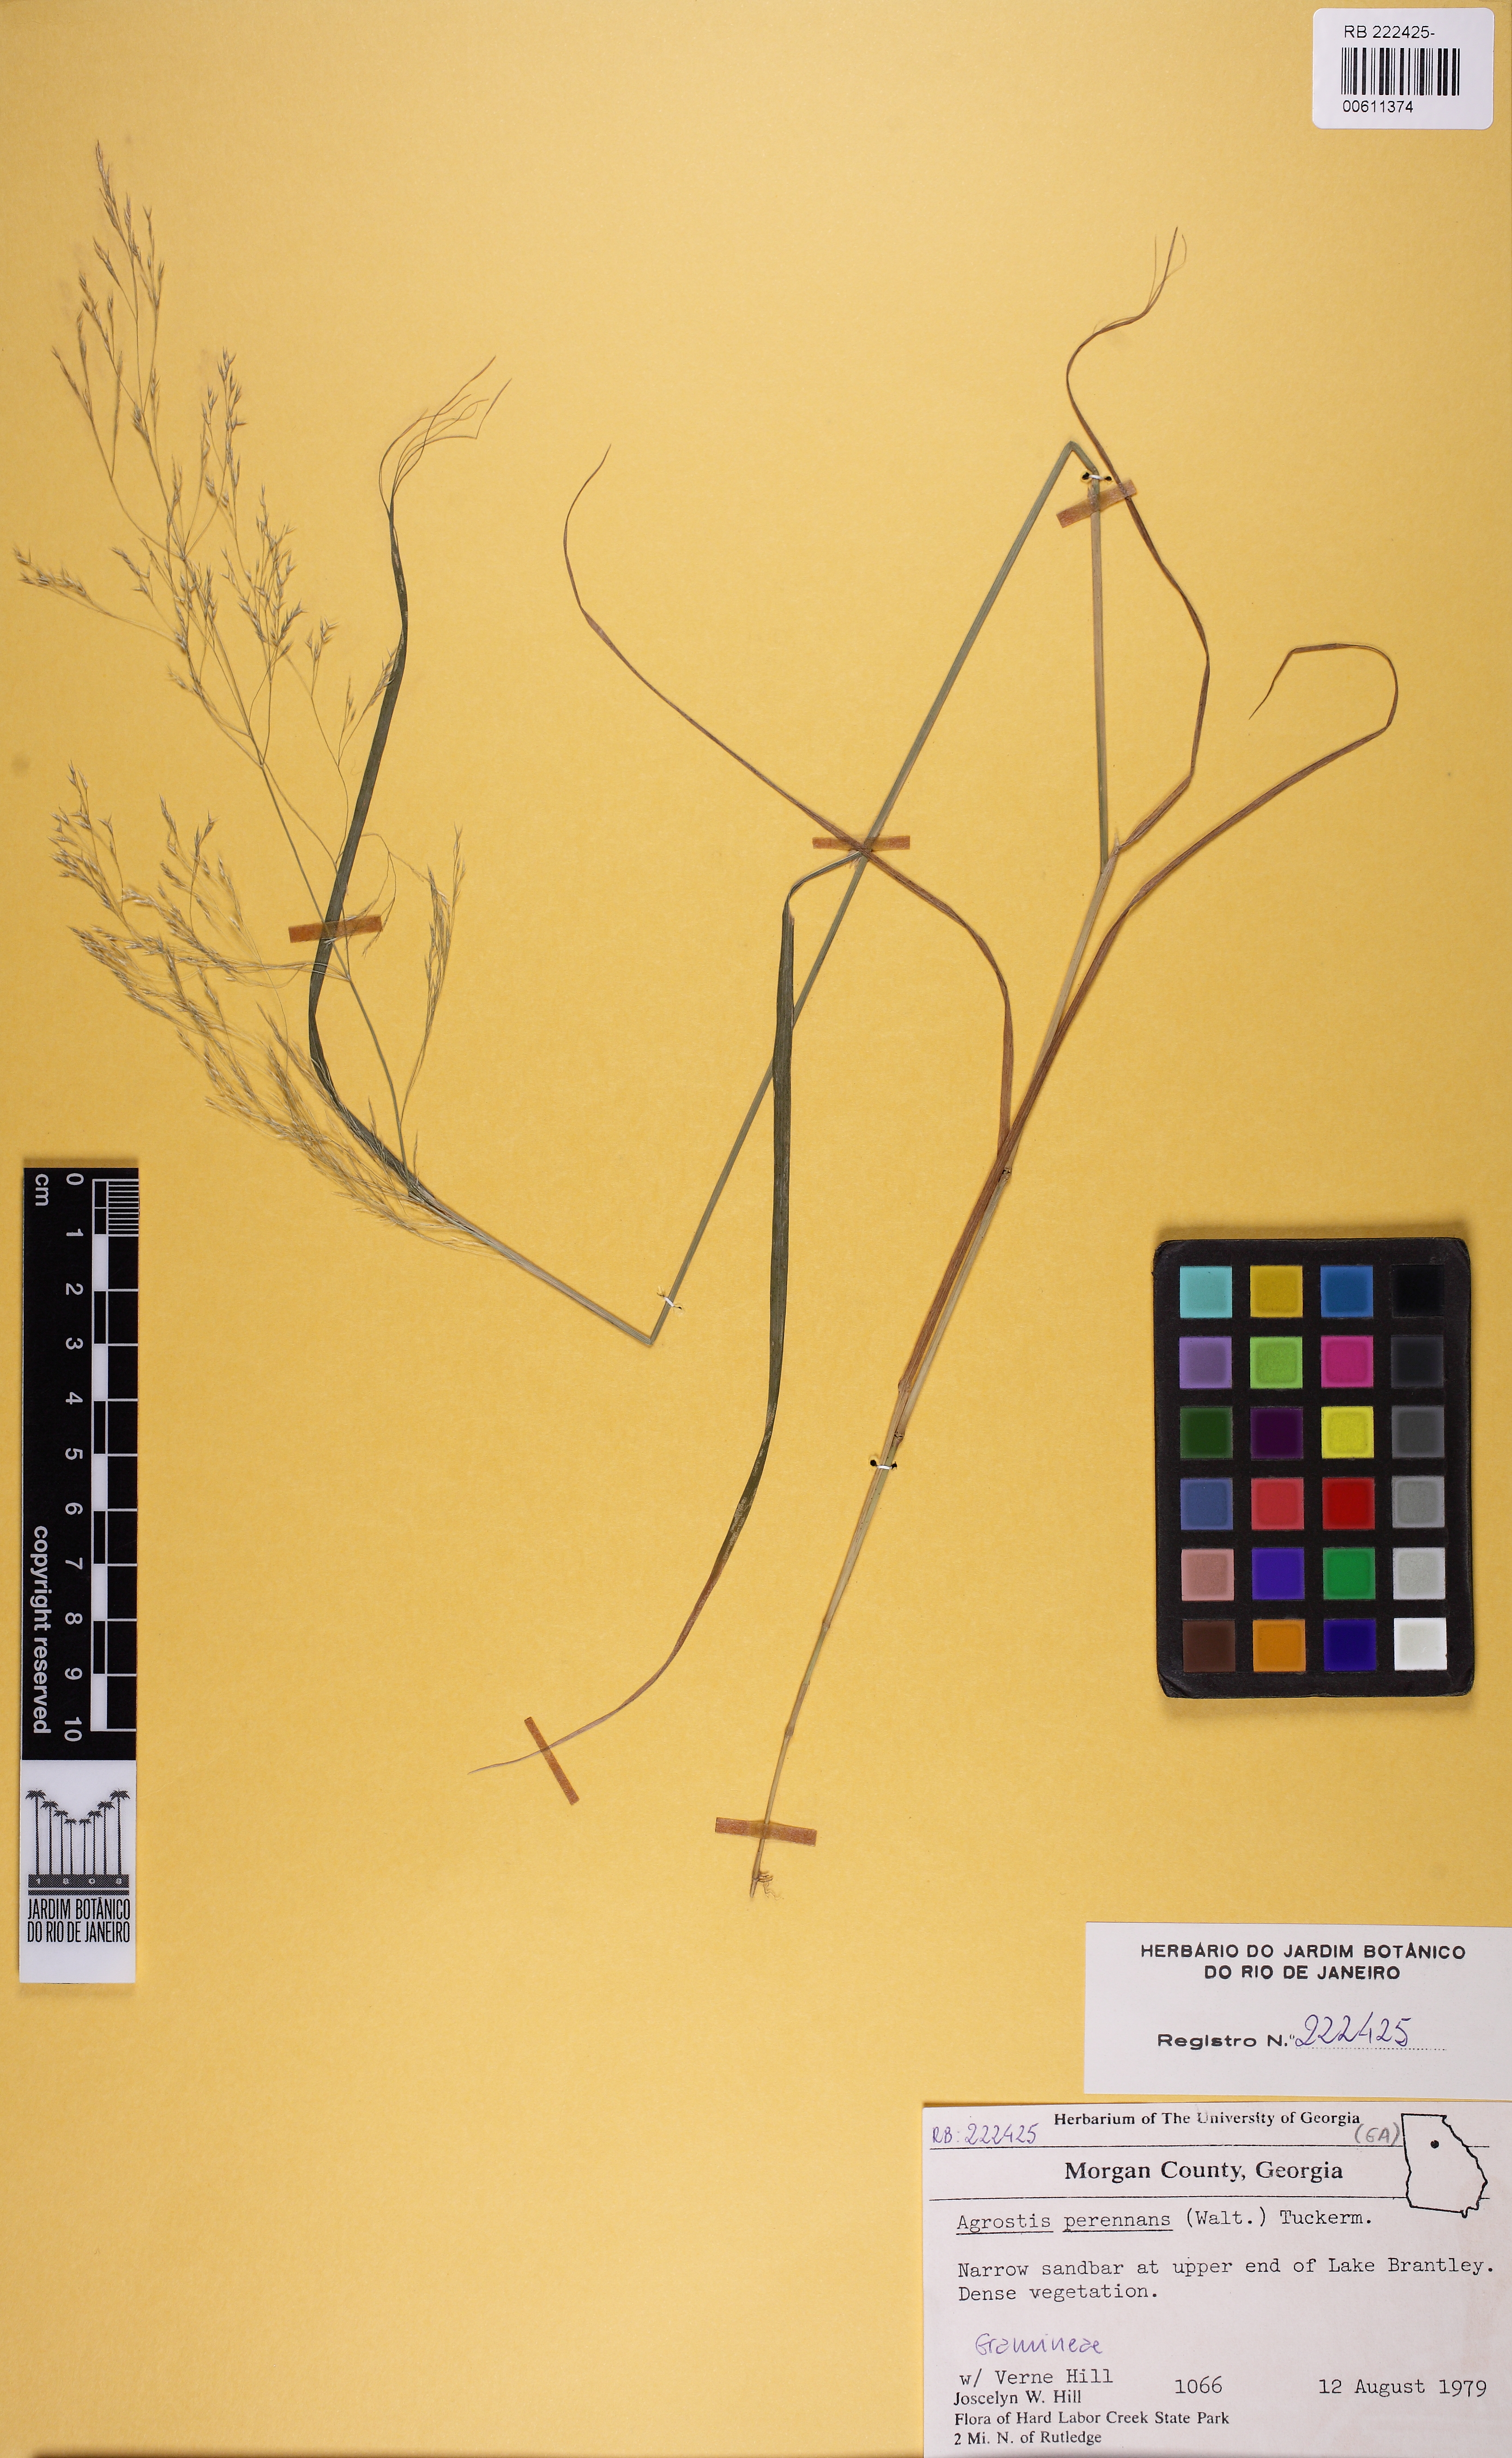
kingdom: Plantae
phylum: Tracheophyta
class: Liliopsida
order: Poales
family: Poaceae
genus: Agrostis
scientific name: Agrostis perennans
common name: Autumn bent
